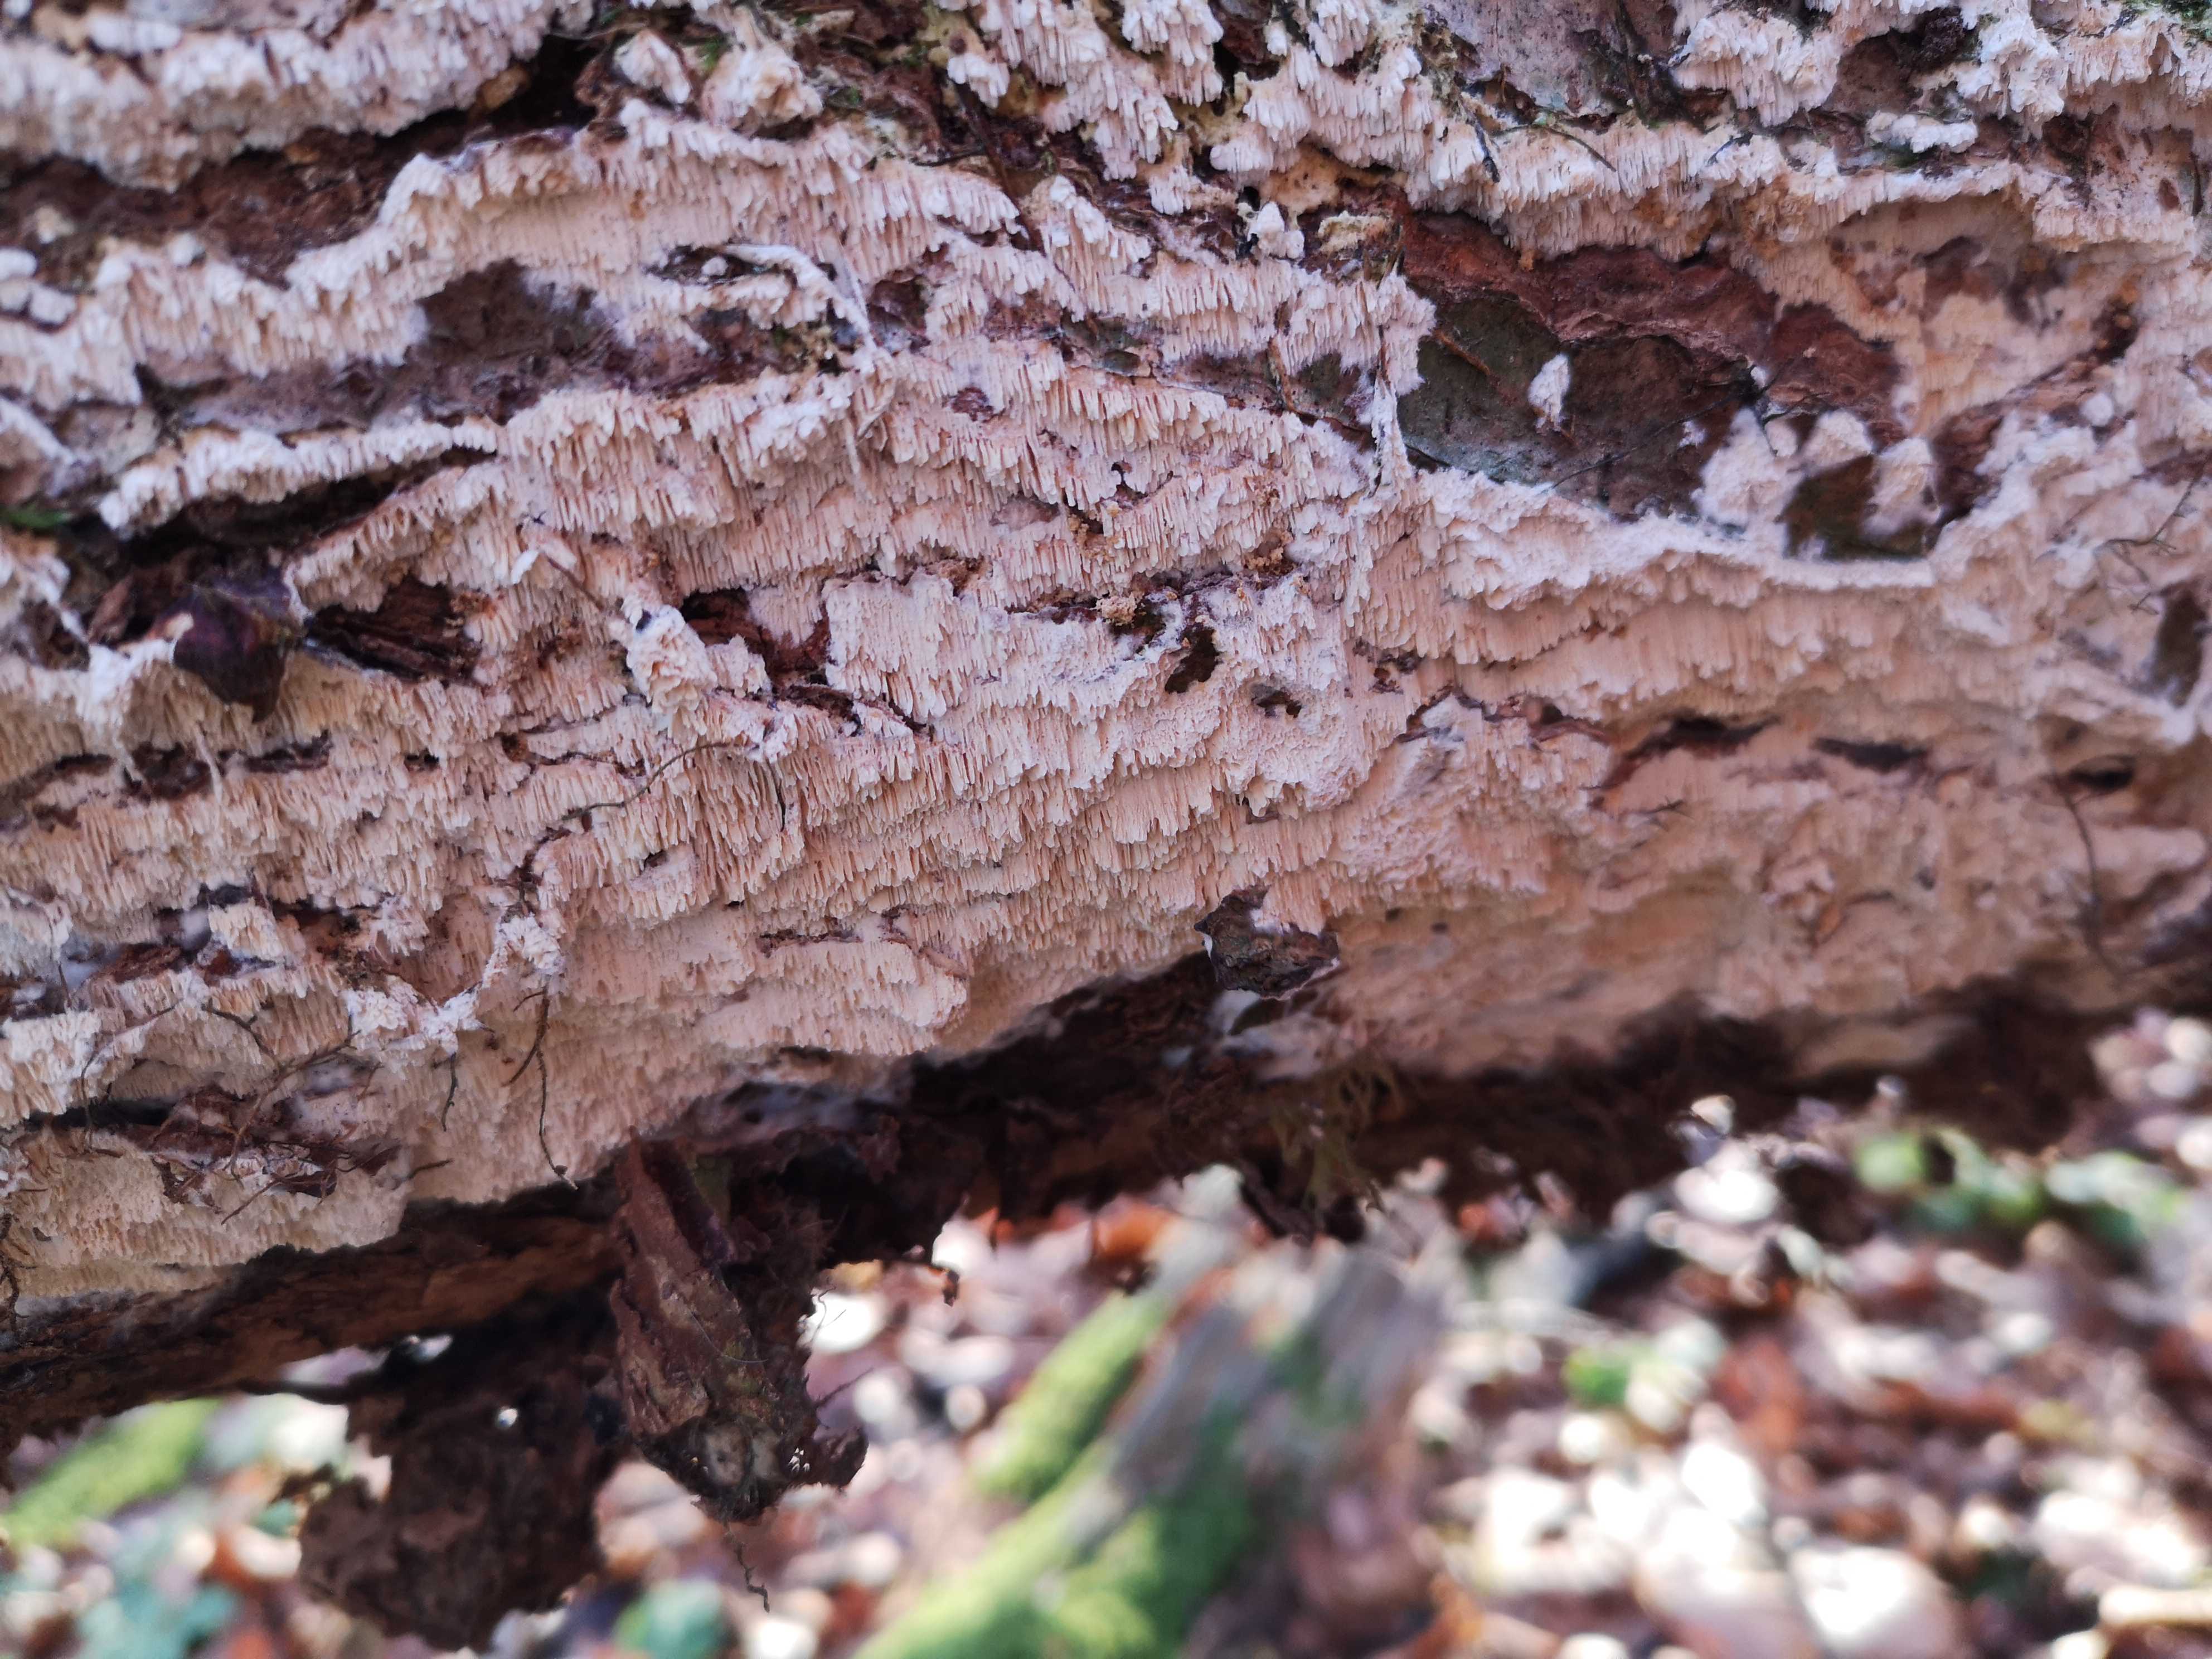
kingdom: Fungi
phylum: Basidiomycota
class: Agaricomycetes
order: Corticiales
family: Corticiaceae
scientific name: Corticiaceae
